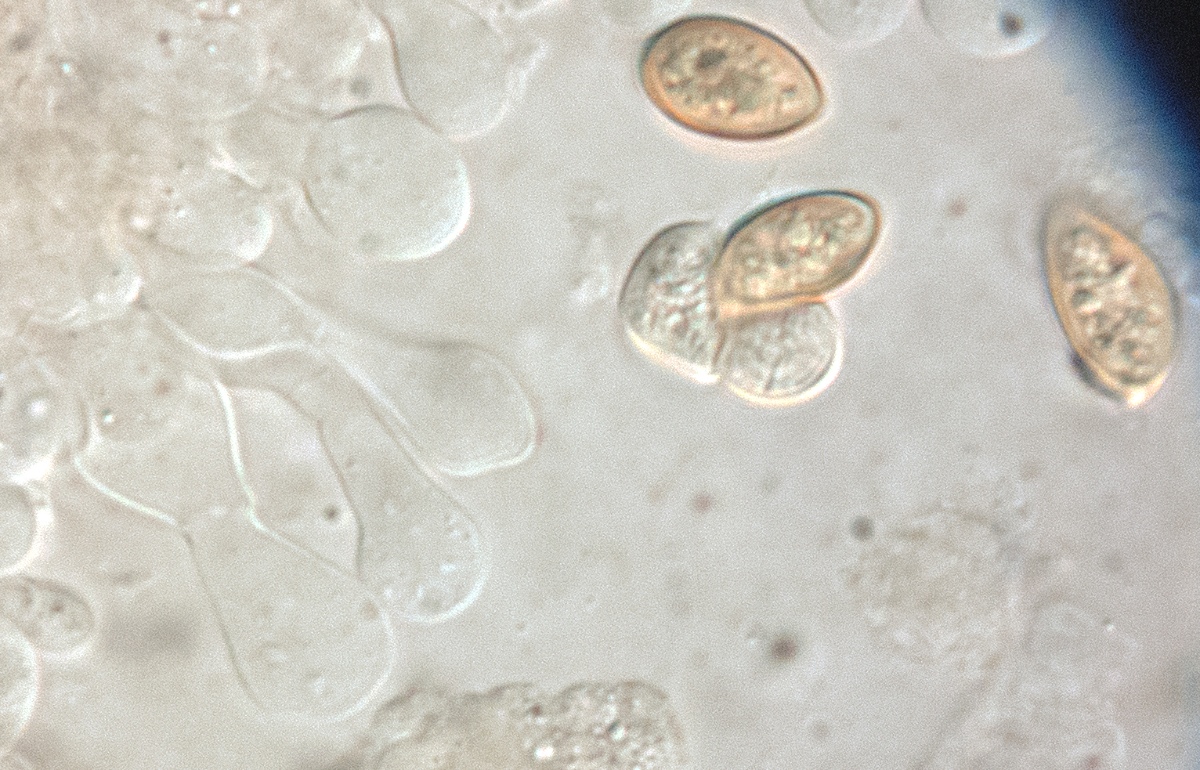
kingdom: Fungi
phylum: Basidiomycota
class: Agaricomycetes
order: Agaricales
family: Hymenogastraceae
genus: Galerina
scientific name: Galerina cephalotricha
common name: hede-hjelmhat
